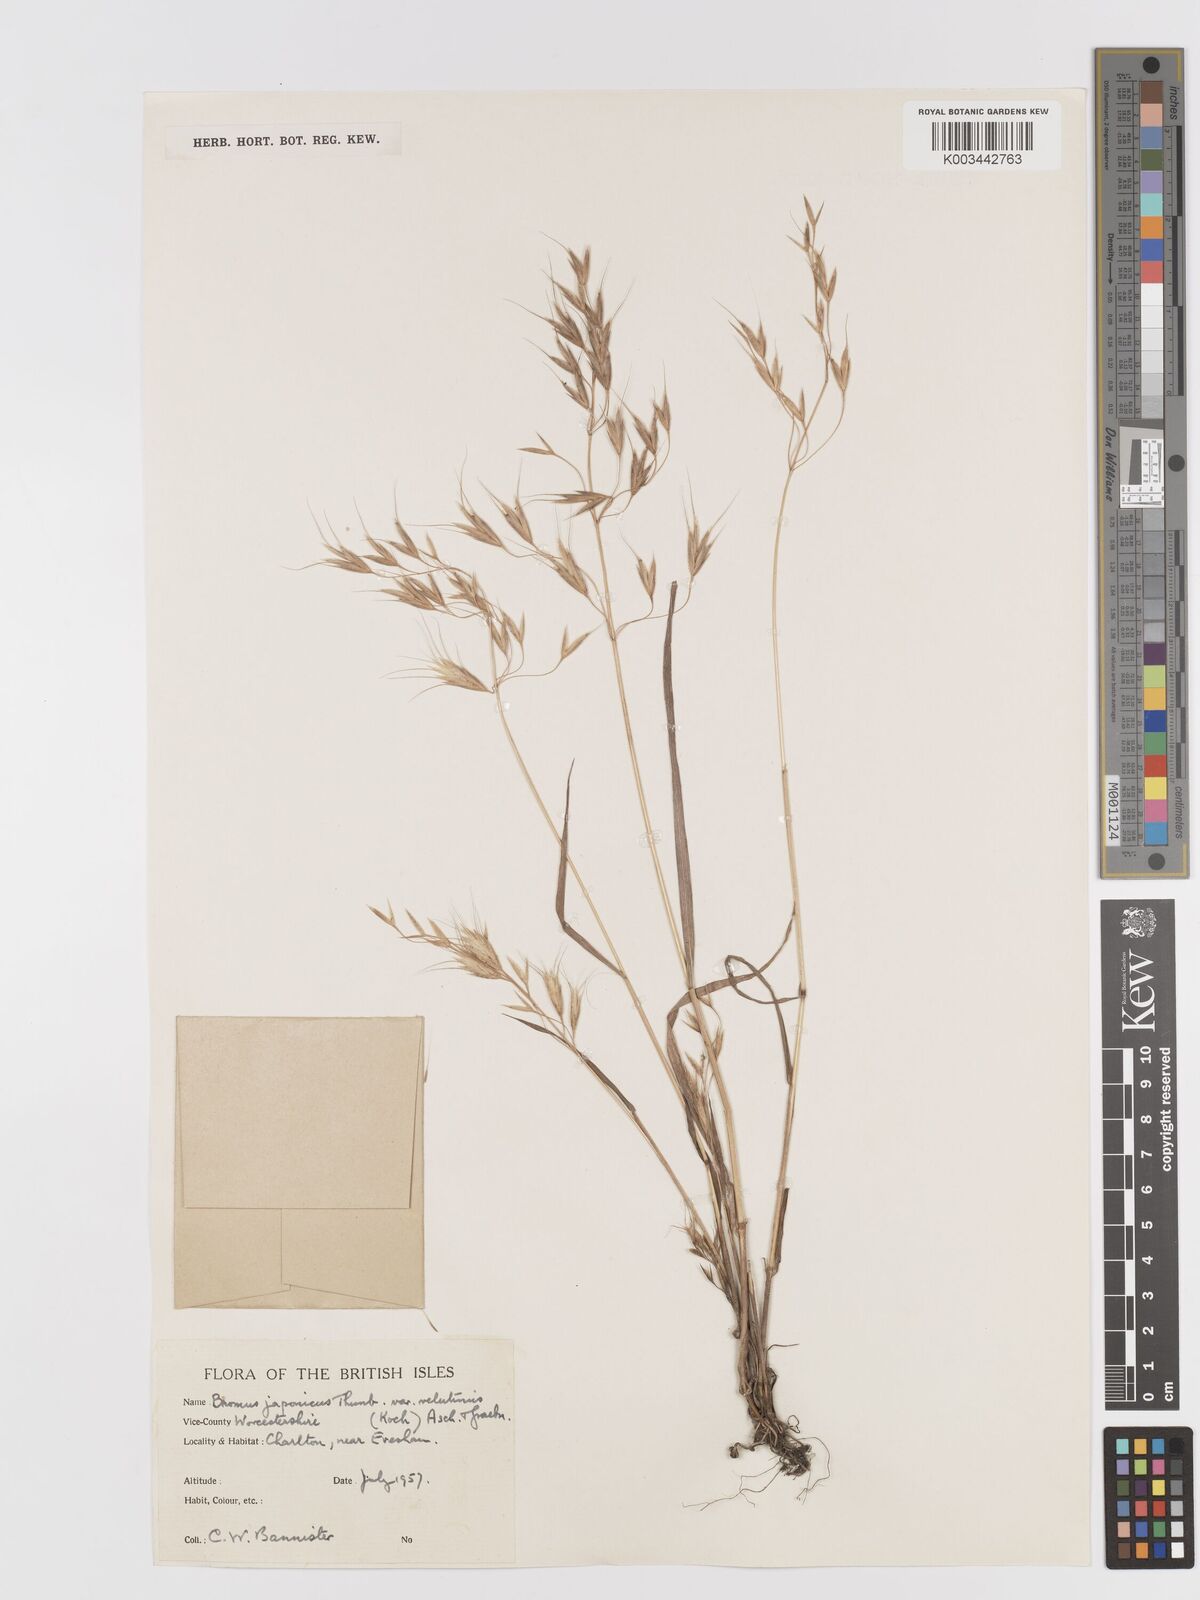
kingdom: Plantae
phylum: Tracheophyta
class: Liliopsida
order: Poales
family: Poaceae
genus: Bromus
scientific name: Bromus japonicus
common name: Japanese brome
